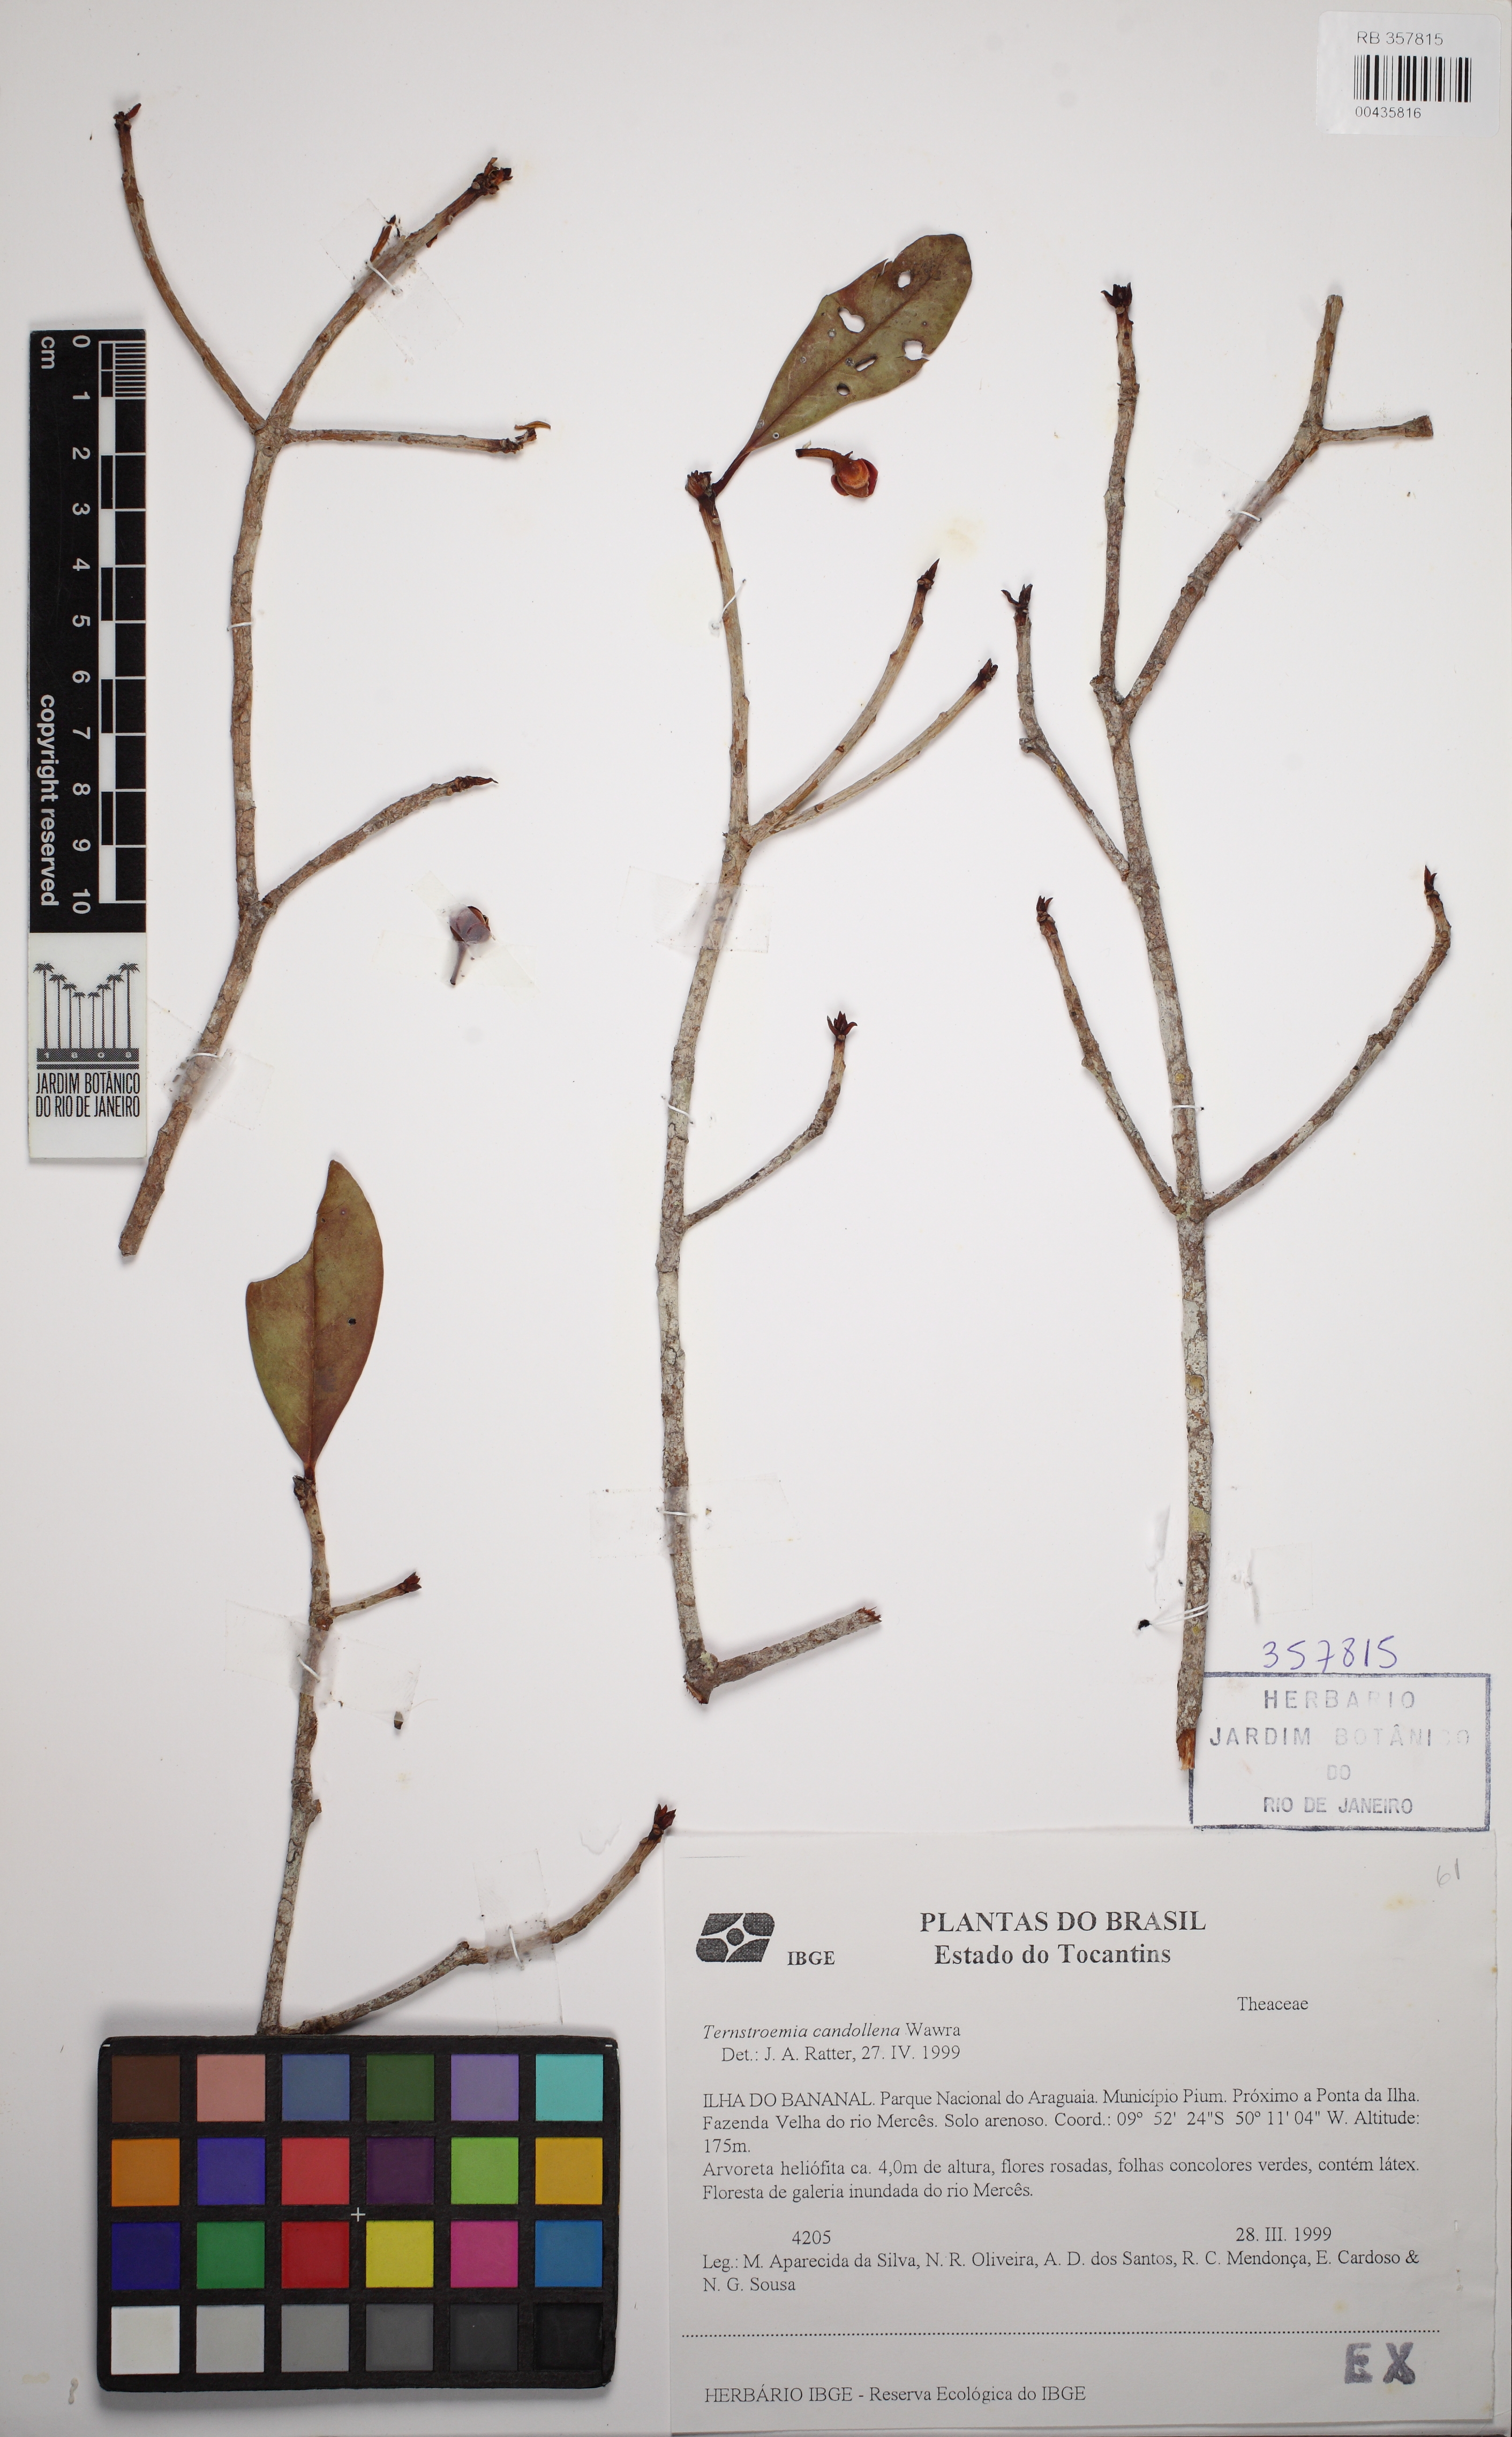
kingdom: Plantae
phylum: Tracheophyta
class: Magnoliopsida
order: Ericales
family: Pentaphylacaceae
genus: Ternstroemia
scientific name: Ternstroemia candolleana
